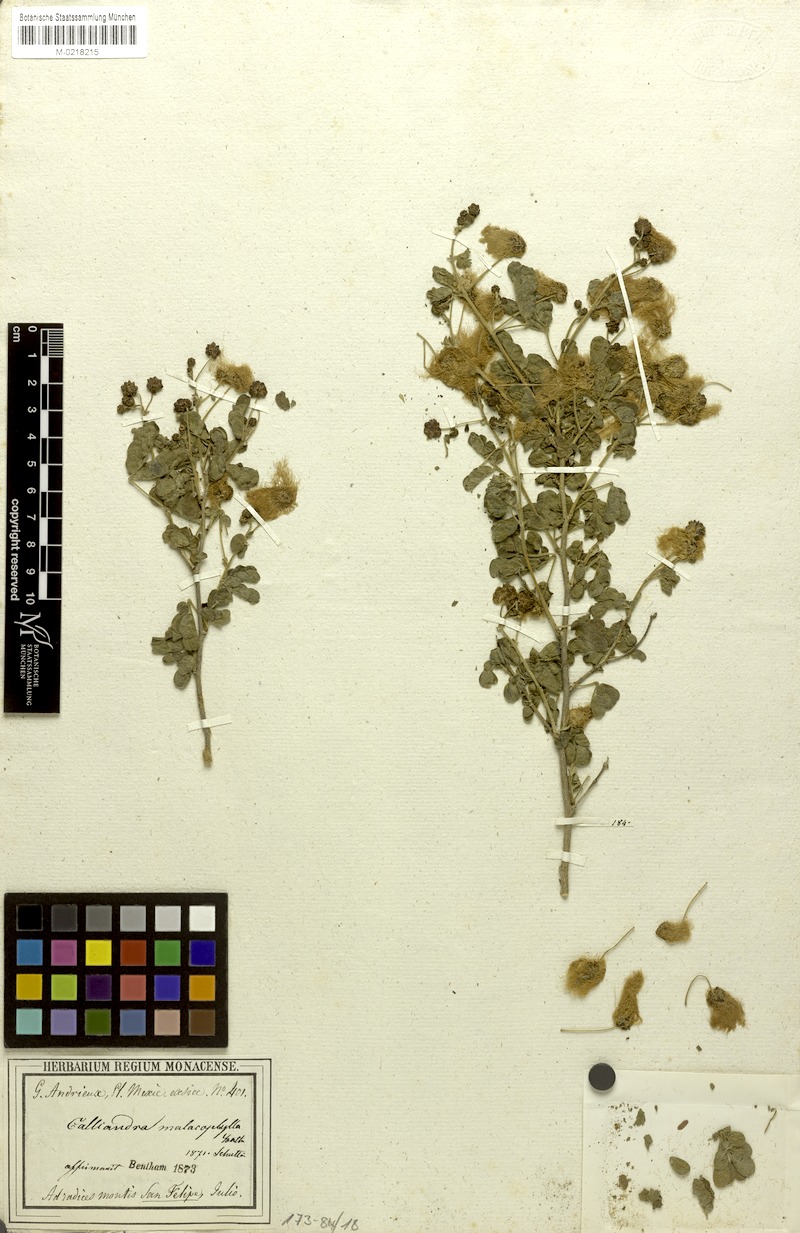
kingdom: Plantae
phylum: Tracheophyta
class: Magnoliopsida
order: Fabales
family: Fabaceae
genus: Zapoteca
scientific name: Zapoteca formosa
